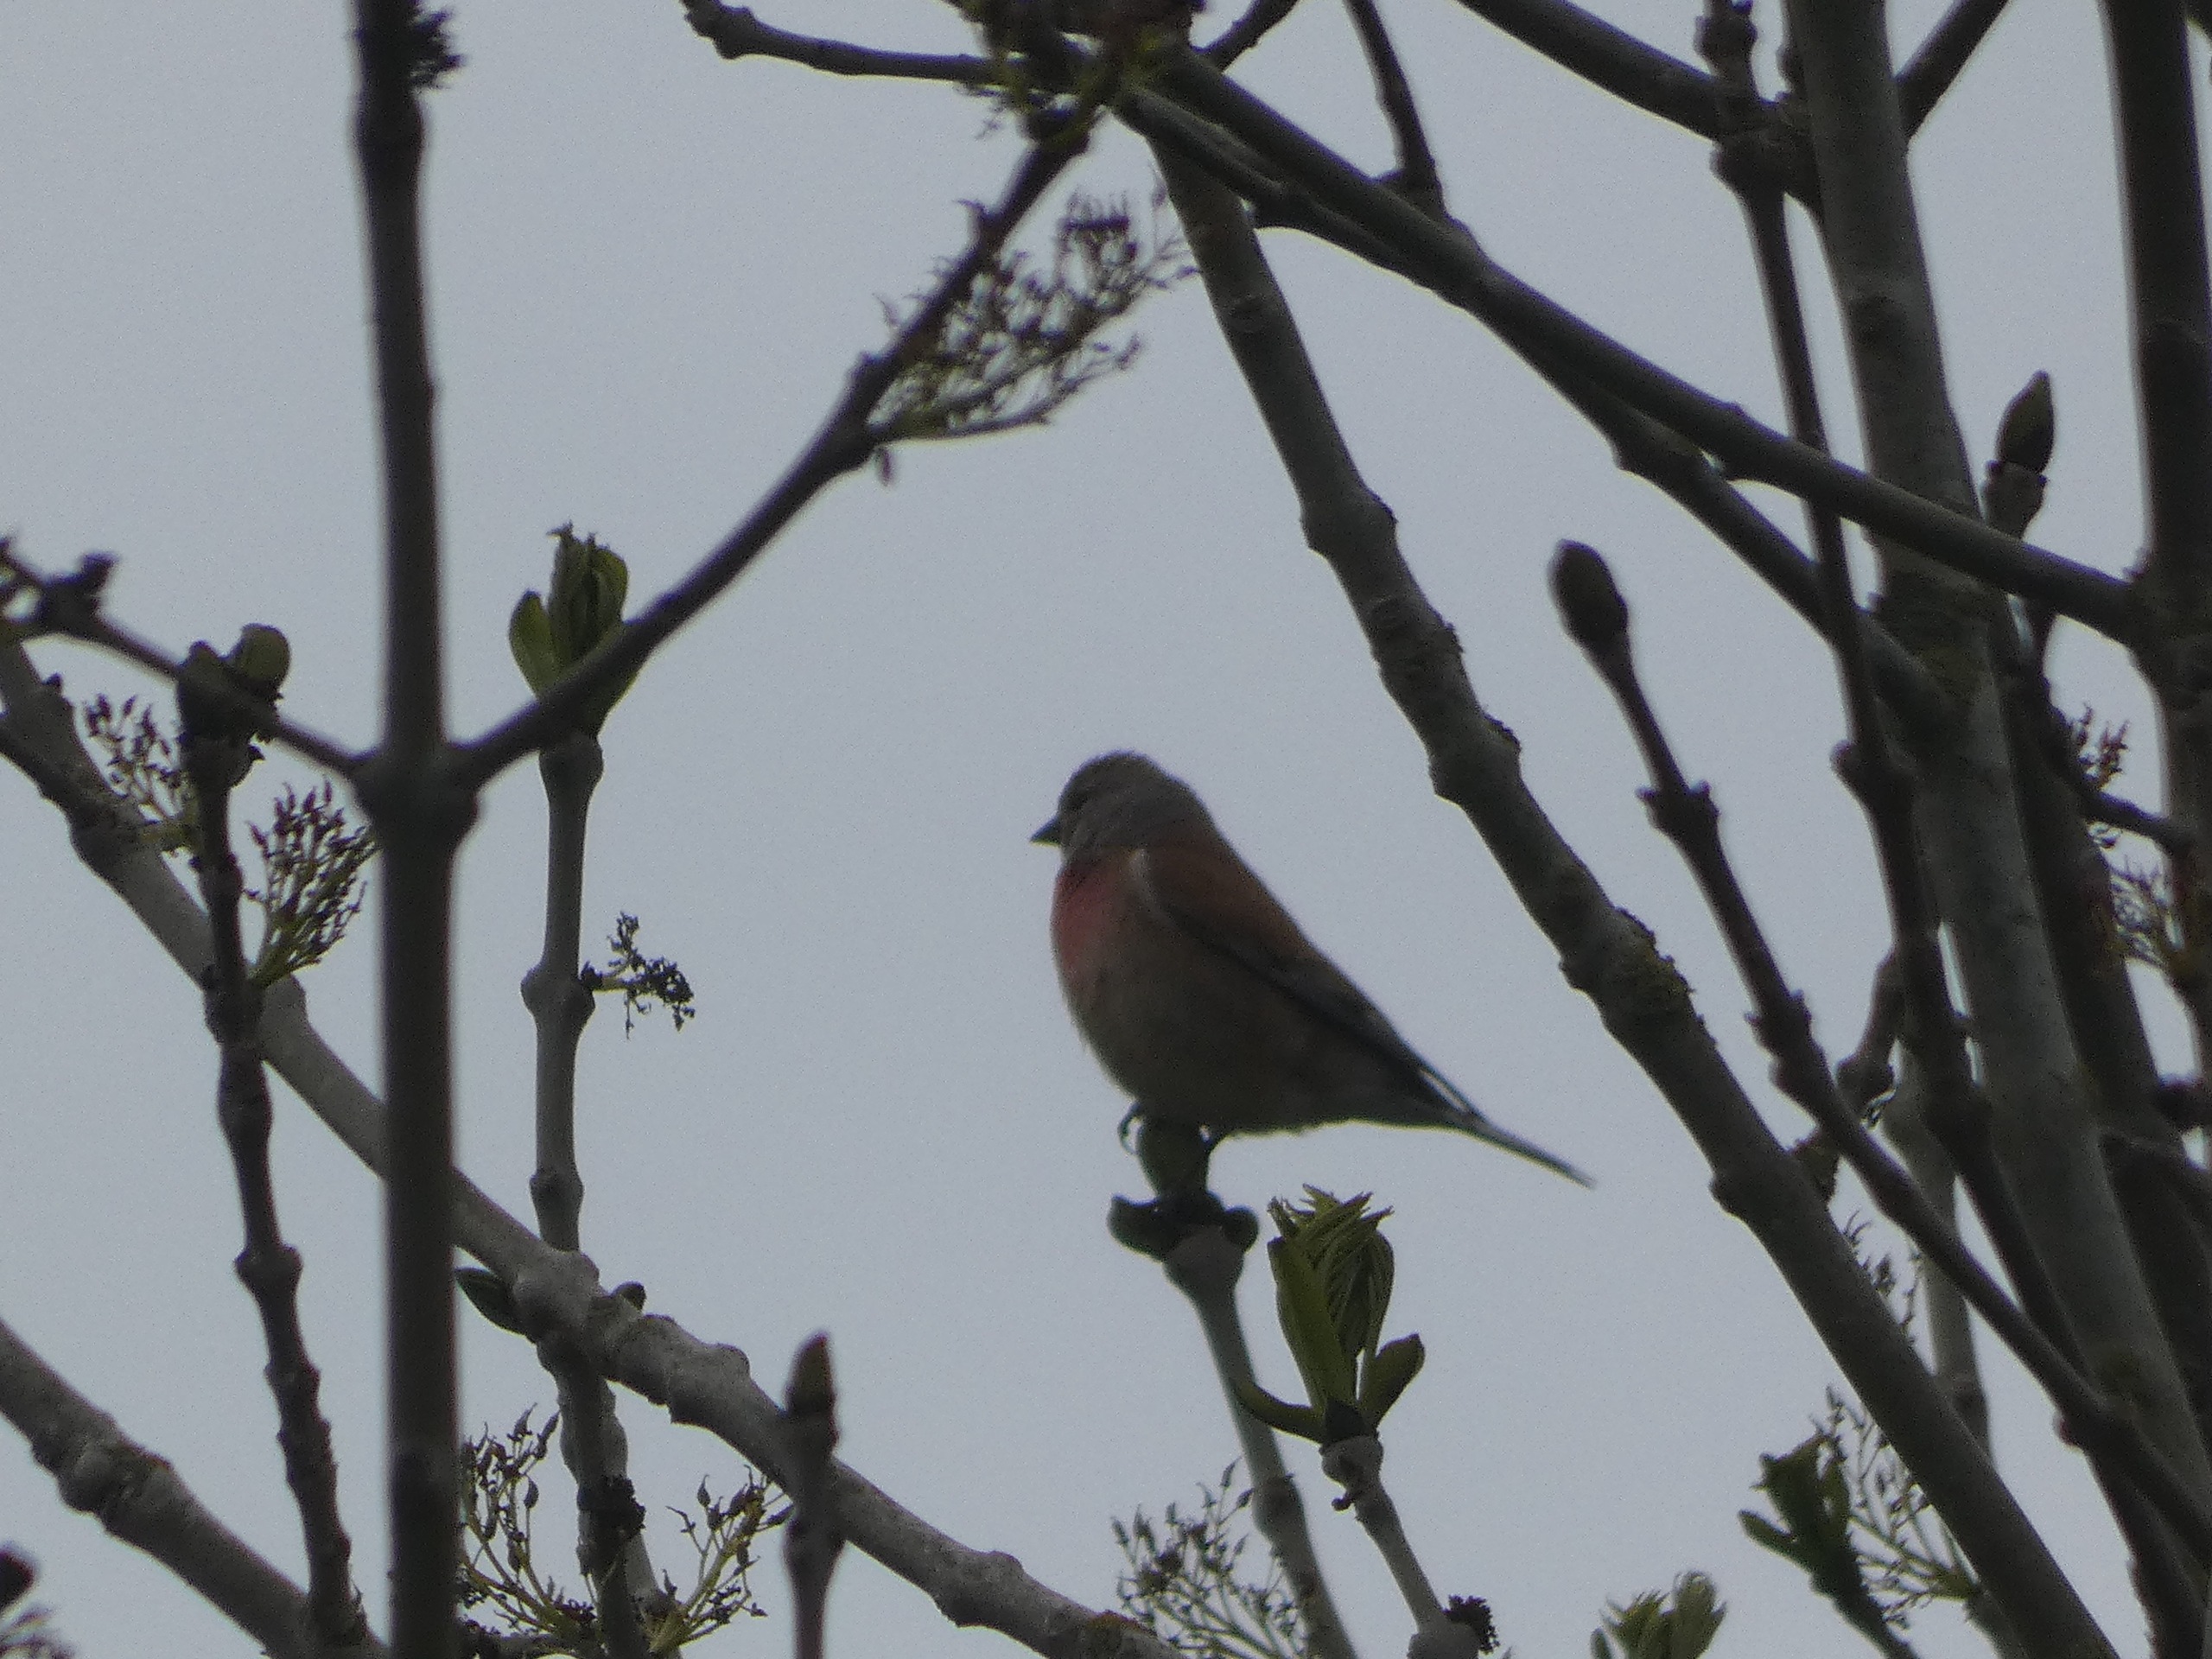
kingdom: Animalia
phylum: Chordata
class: Aves
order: Passeriformes
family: Fringillidae
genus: Linaria
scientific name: Linaria cannabina
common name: Tornirisk
